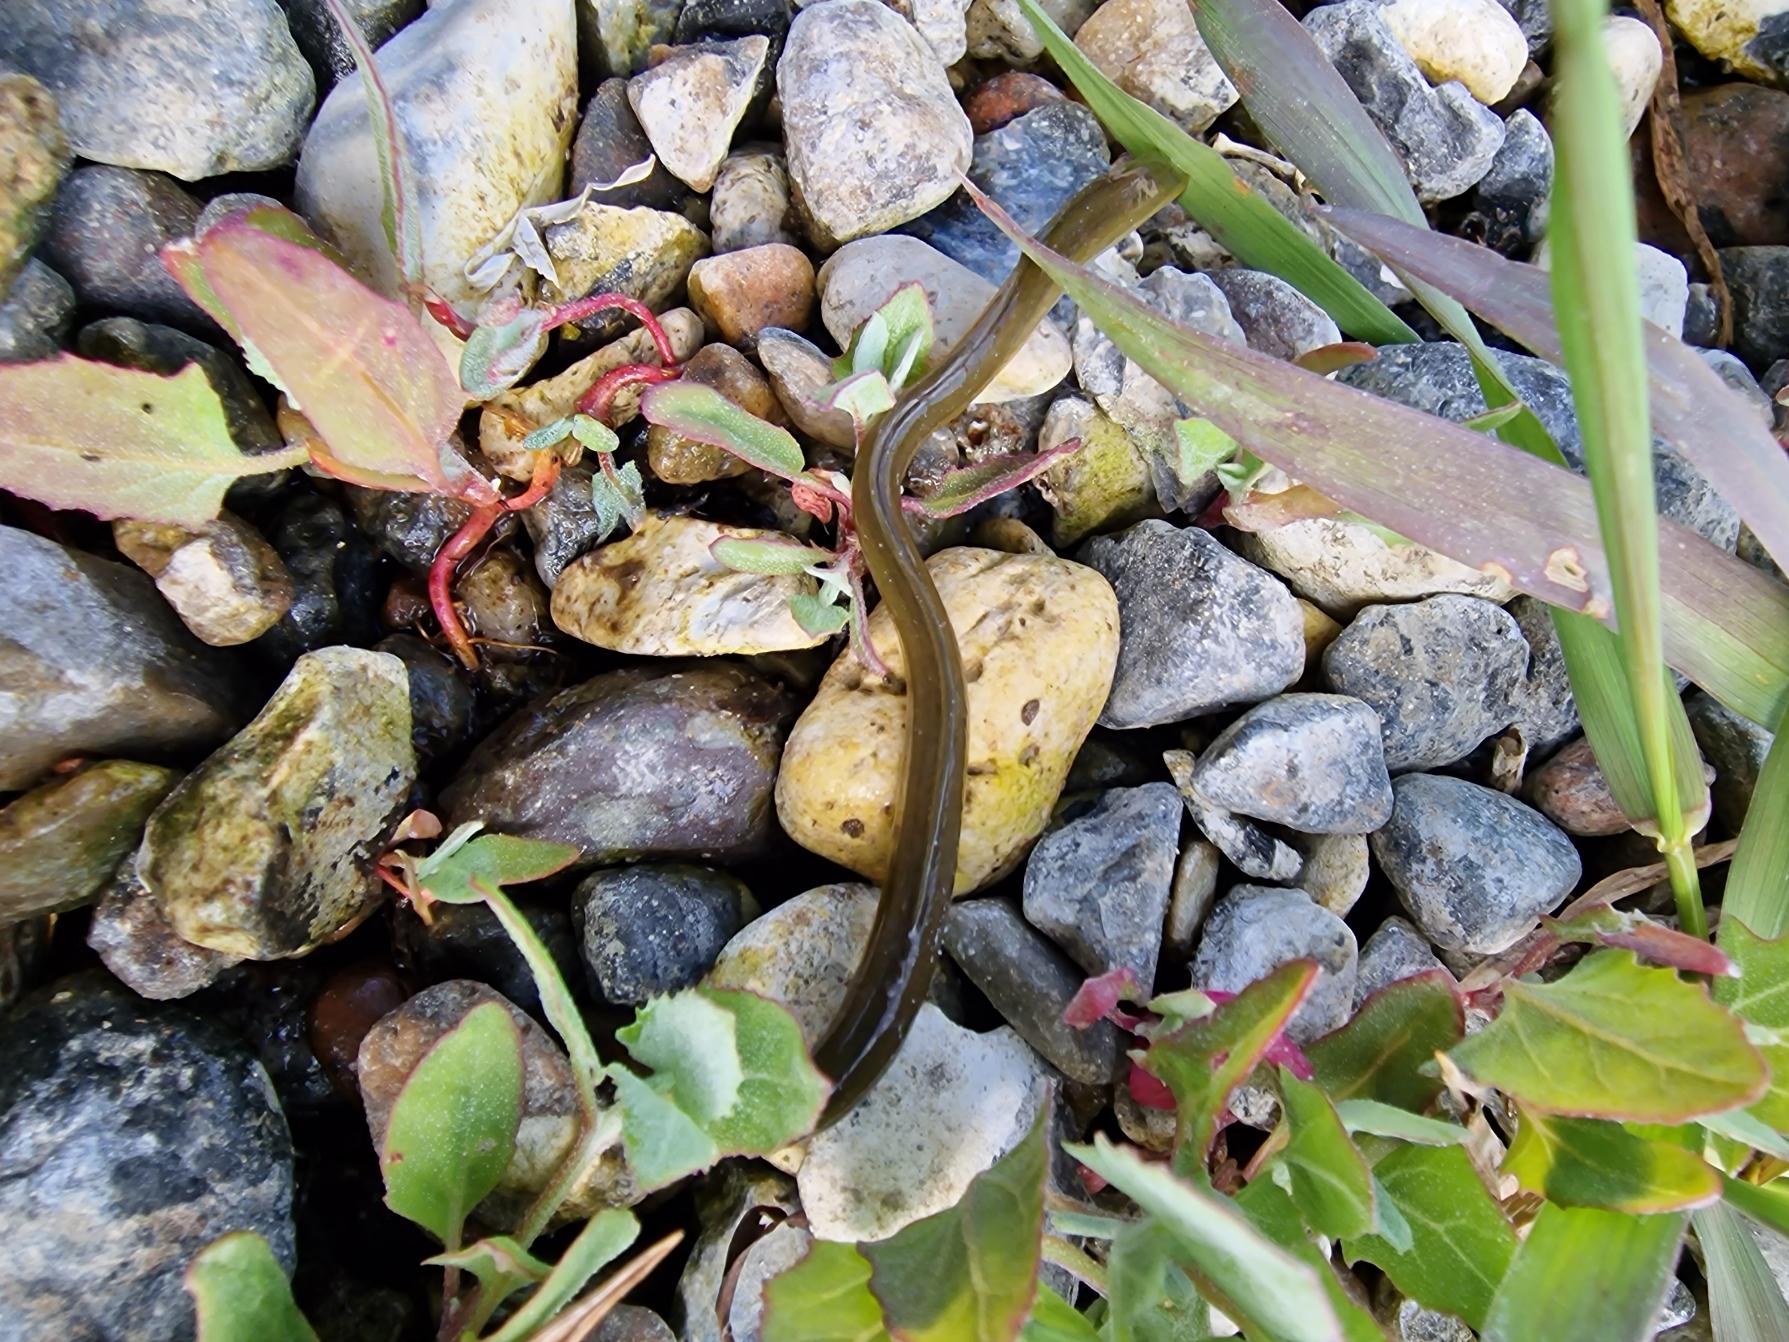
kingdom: Animalia
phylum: Chordata
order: Anguilliformes
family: Anguillidae
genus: Anguilla
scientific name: Anguilla anguilla
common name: Europæisk ål
